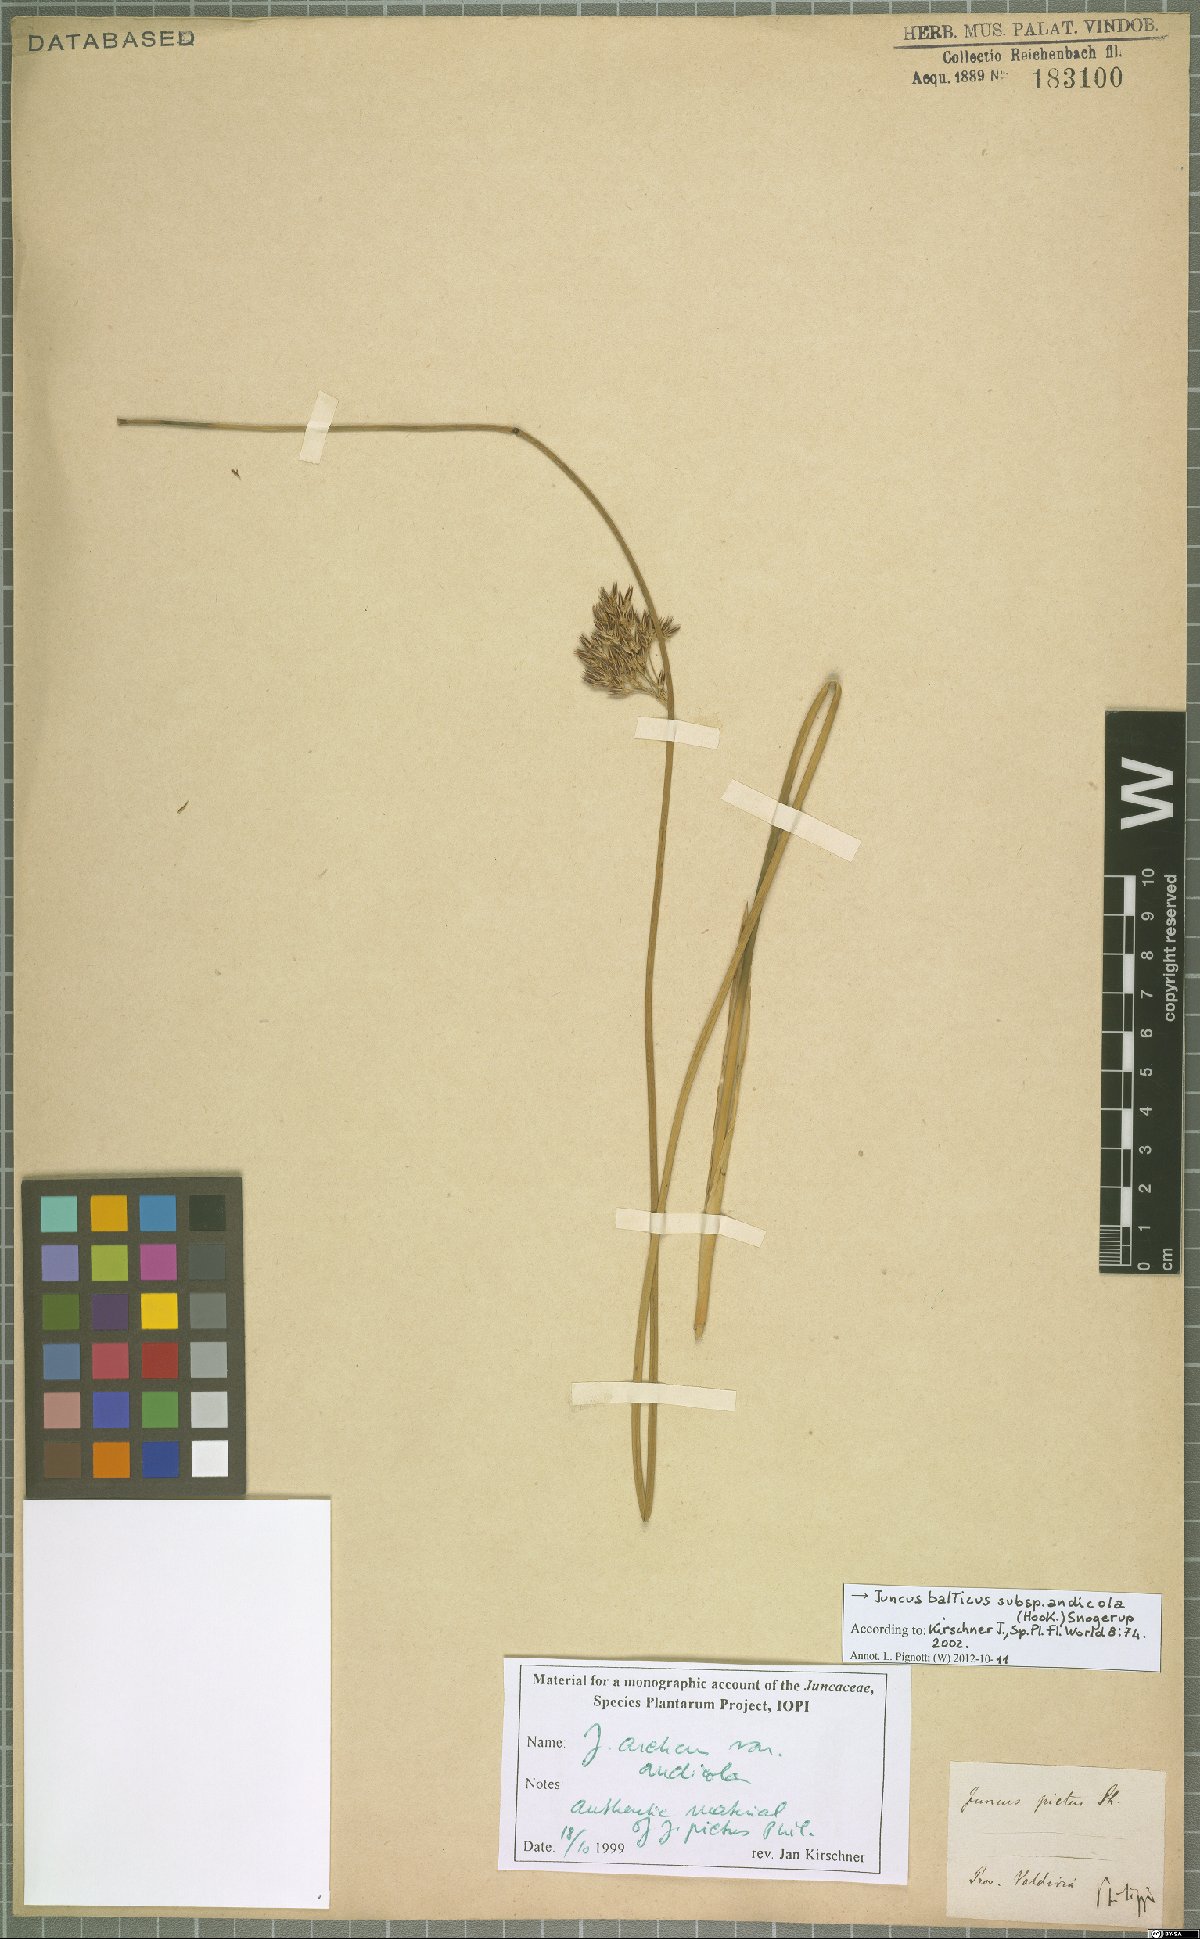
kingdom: Plantae
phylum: Tracheophyta
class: Liliopsida
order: Poales
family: Juncaceae
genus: Juncus
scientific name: Juncus balticus
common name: Baltic rush
